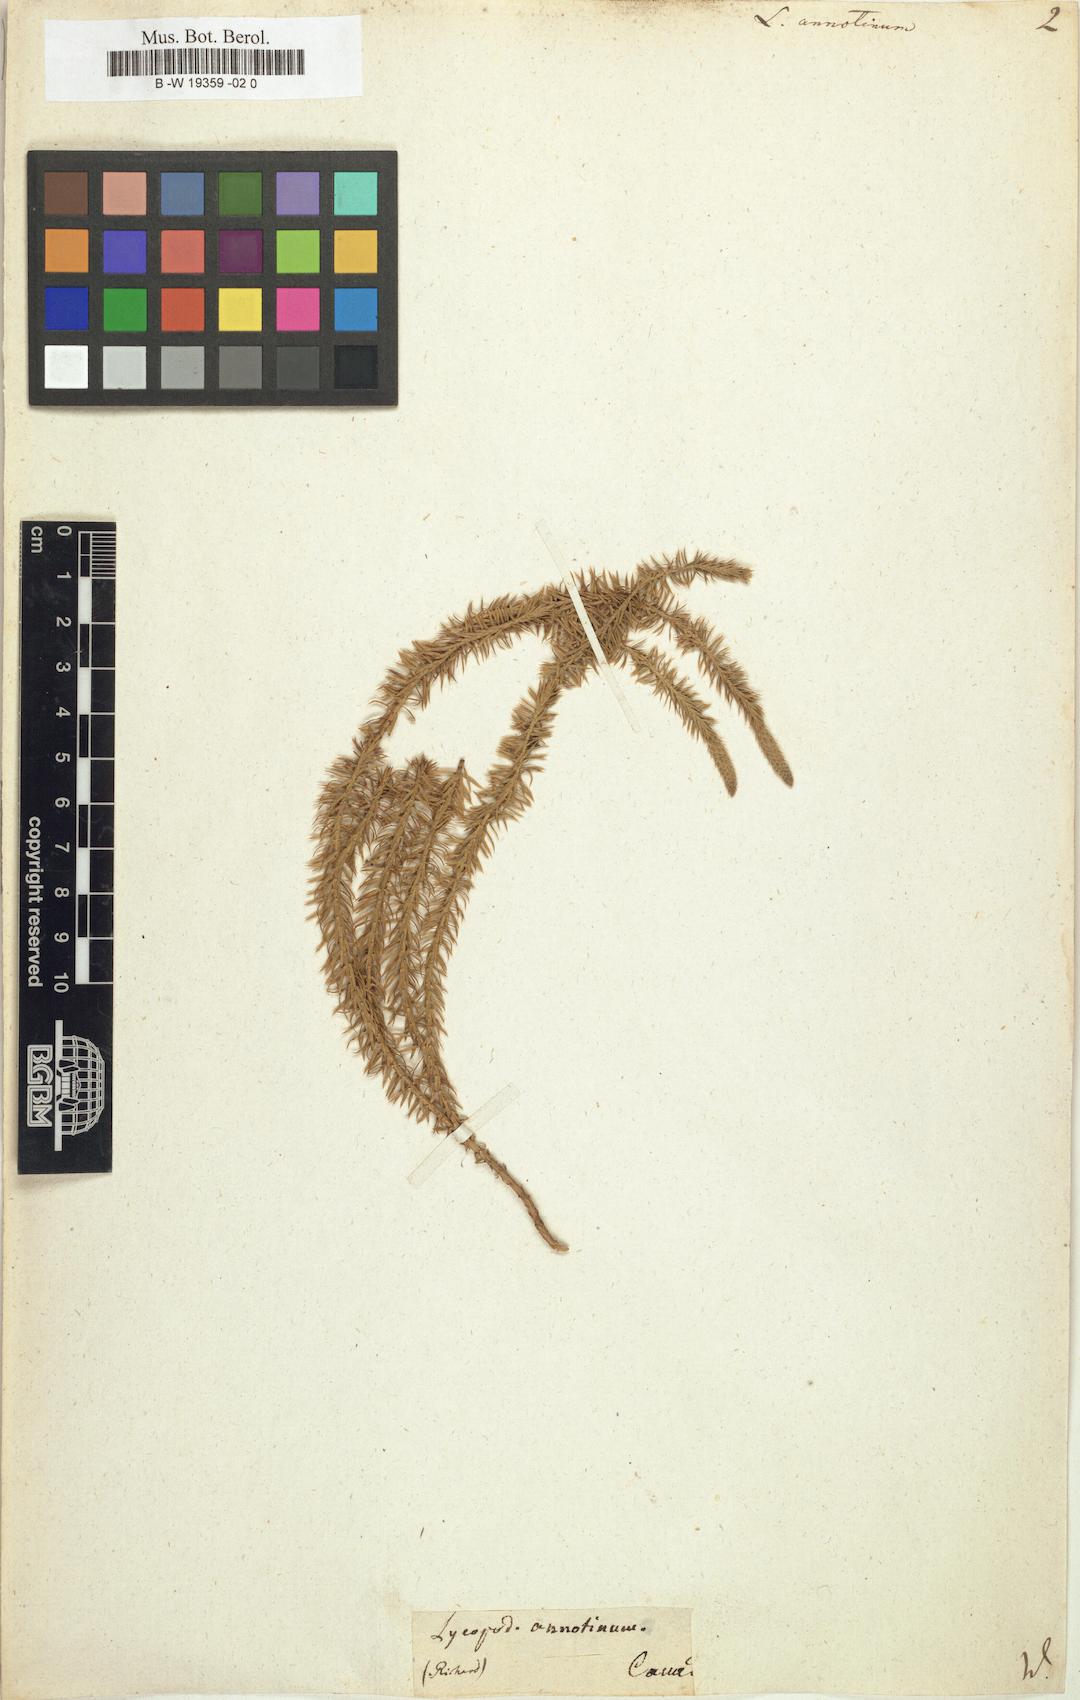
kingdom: Plantae
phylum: Tracheophyta
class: Lycopodiopsida
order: Lycopodiales
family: Lycopodiaceae
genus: Spinulum
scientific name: Spinulum annotinum
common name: Interrupted club-moss
